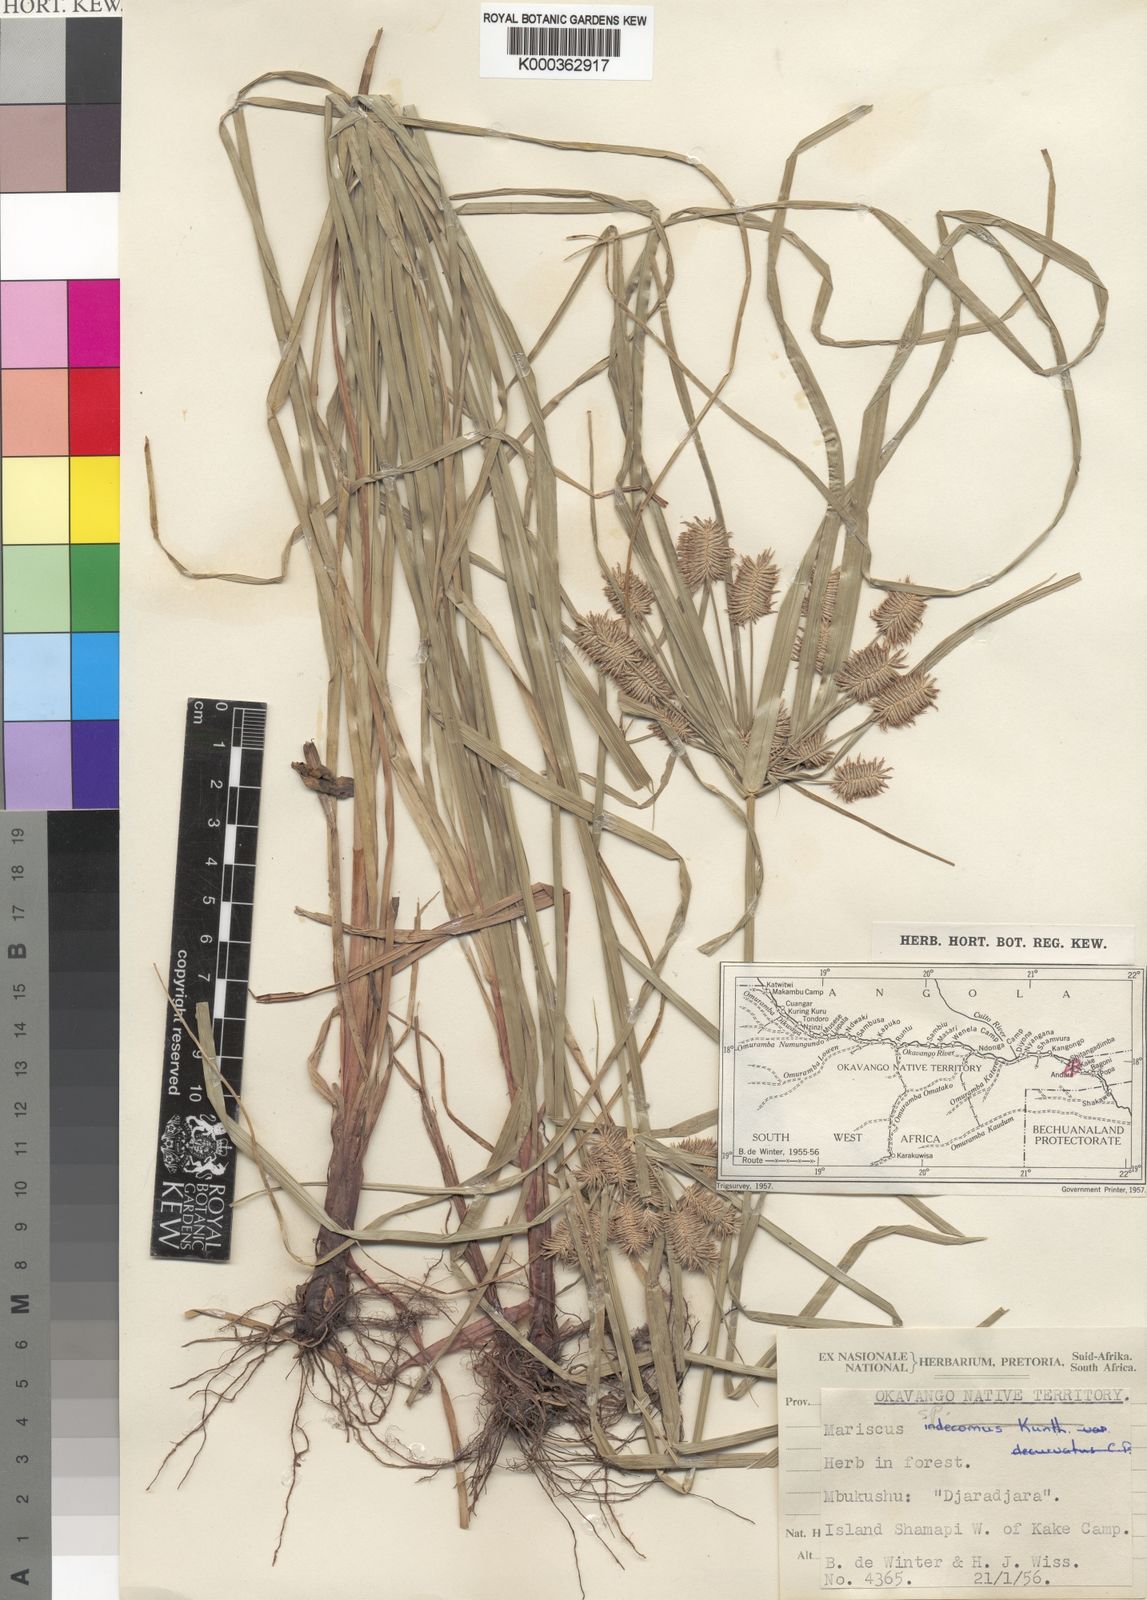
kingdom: Plantae
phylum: Tracheophyta
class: Liliopsida
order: Poales
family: Cyperaceae
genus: Cyperus
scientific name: Cyperus
